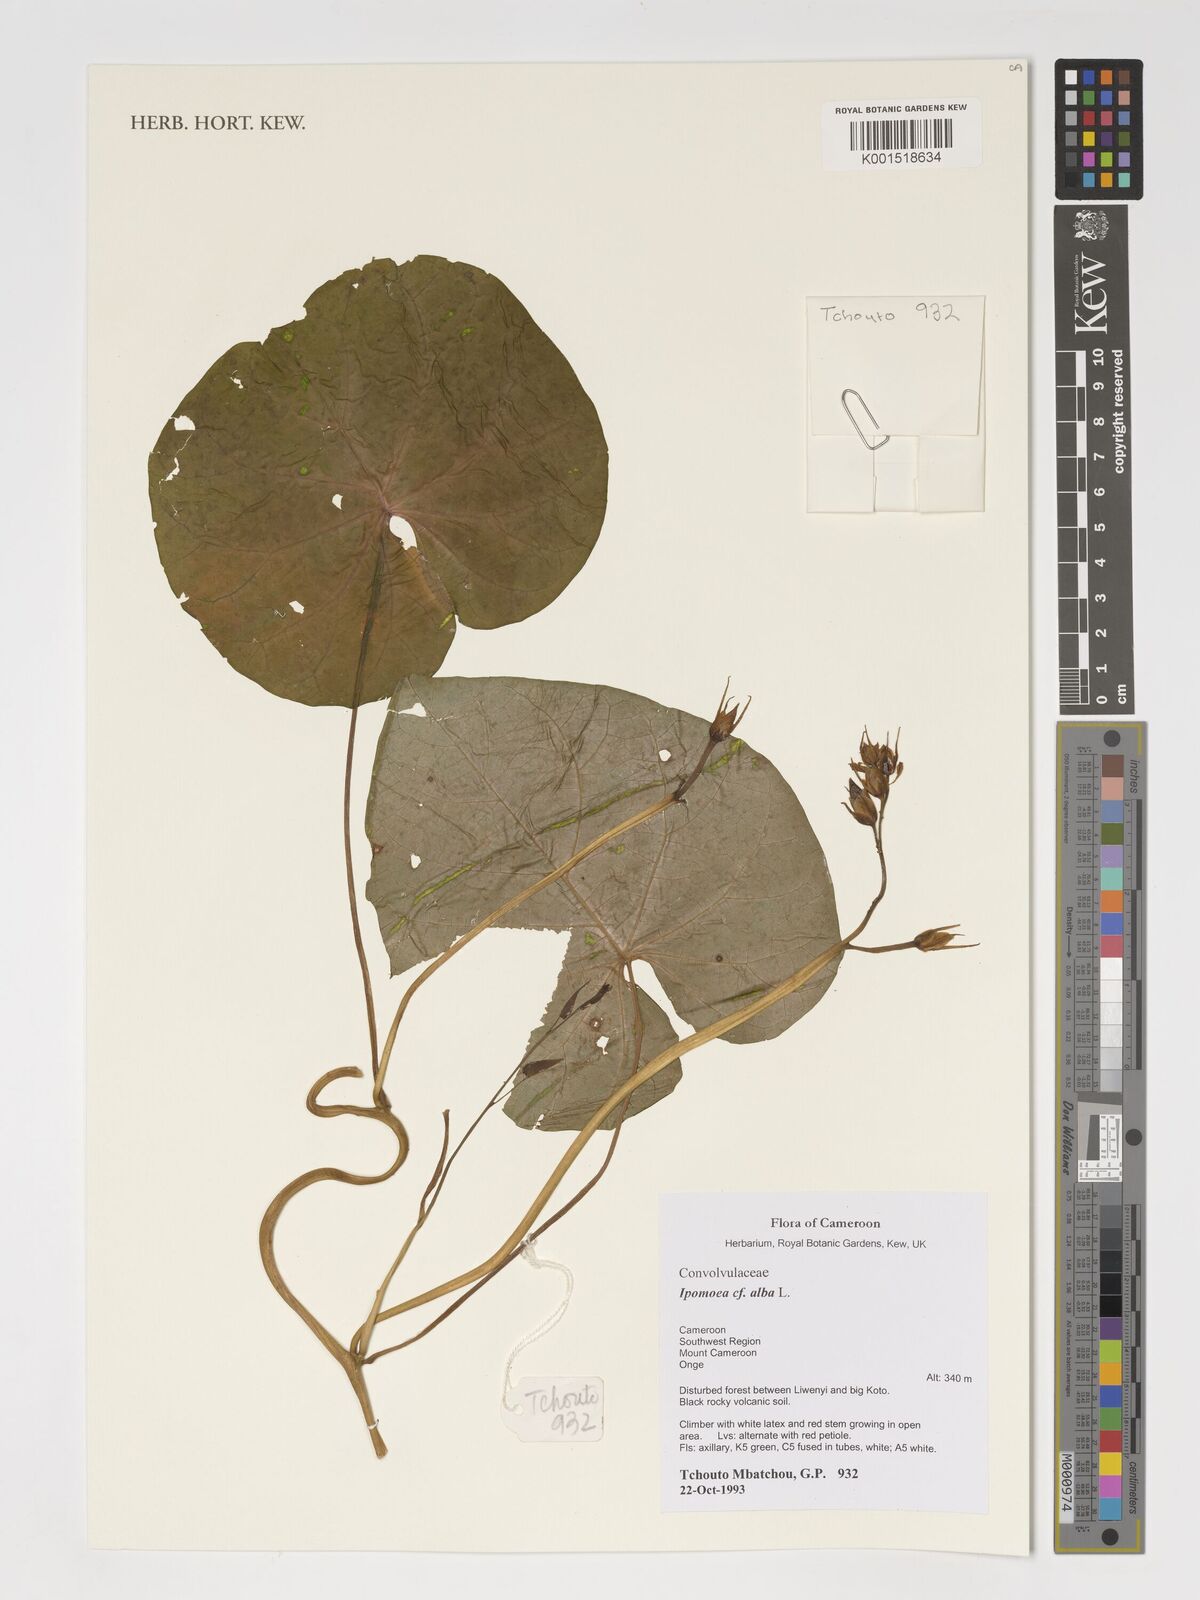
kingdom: Plantae
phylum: Tracheophyta
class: Magnoliopsida
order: Solanales
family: Convolvulaceae
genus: Ipomoea
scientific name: Ipomoea alba
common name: Moonflower
